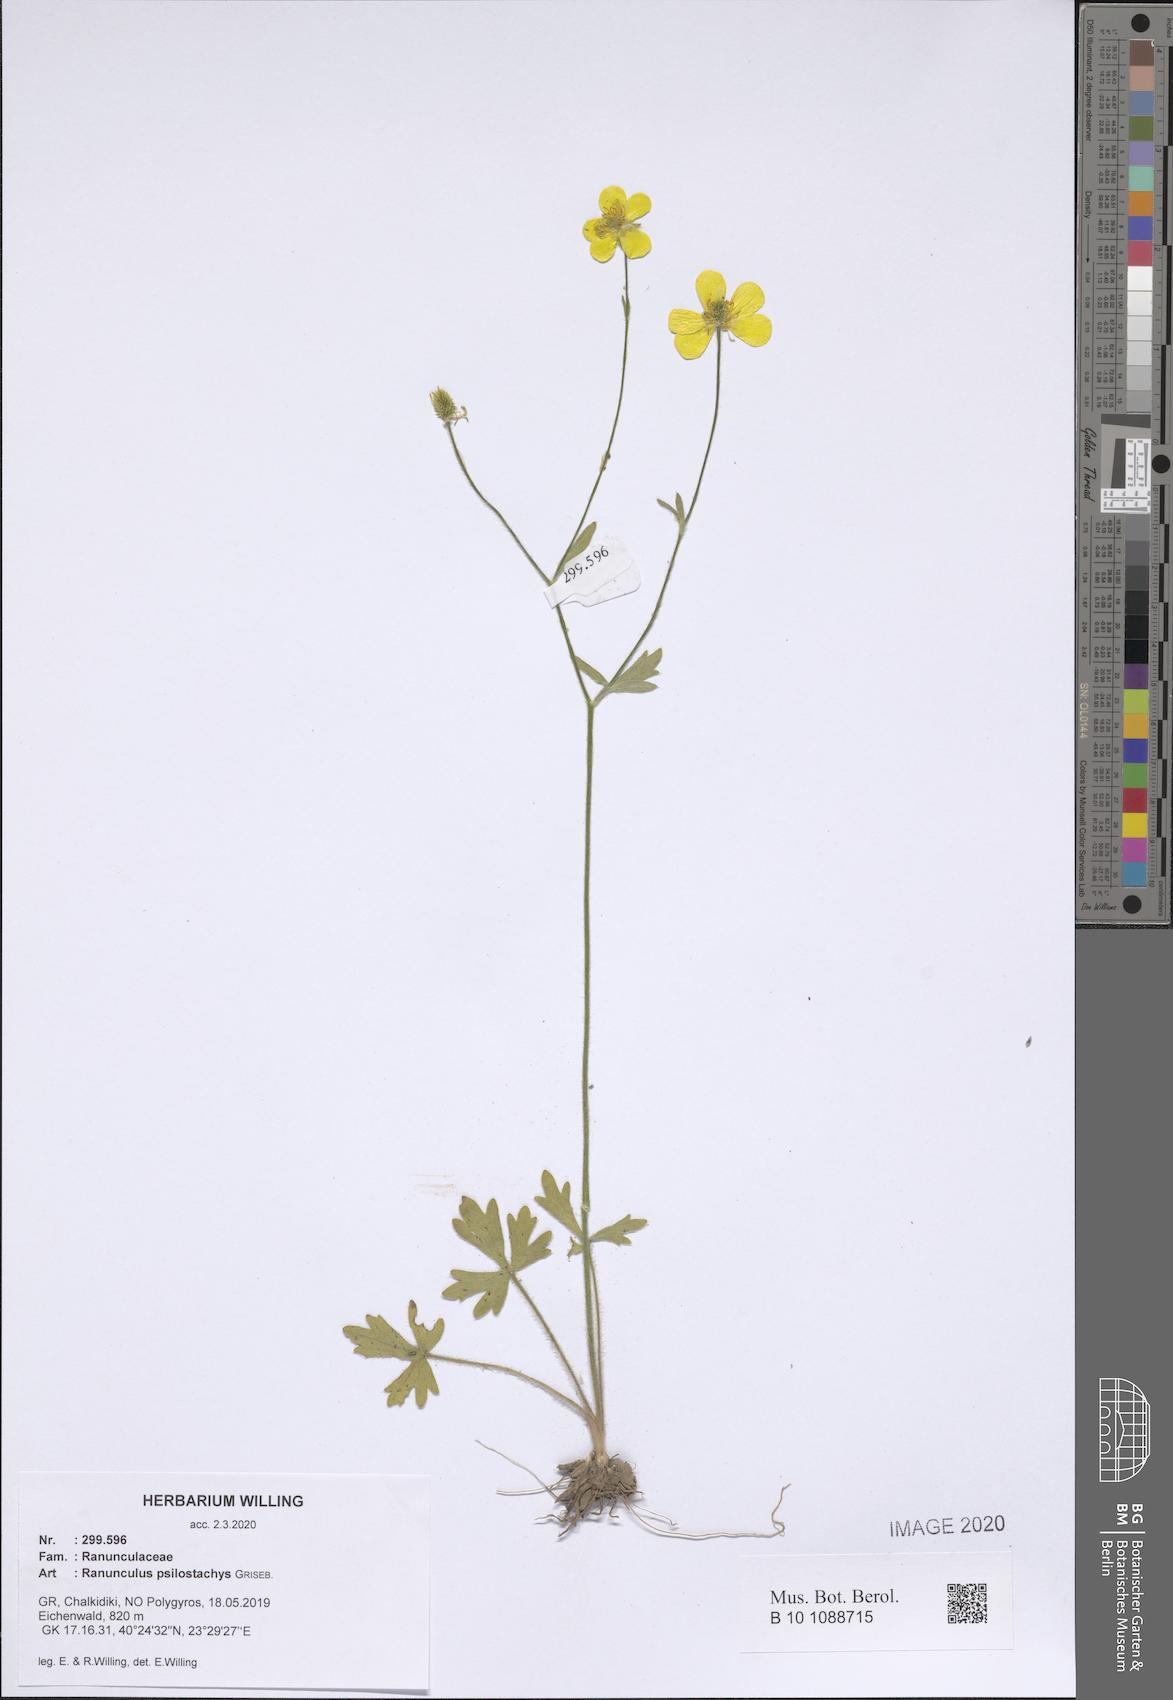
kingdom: Plantae
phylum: Tracheophyta
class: Magnoliopsida
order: Ranunculales
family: Ranunculaceae
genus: Ranunculus
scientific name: Ranunculus psilostachys
